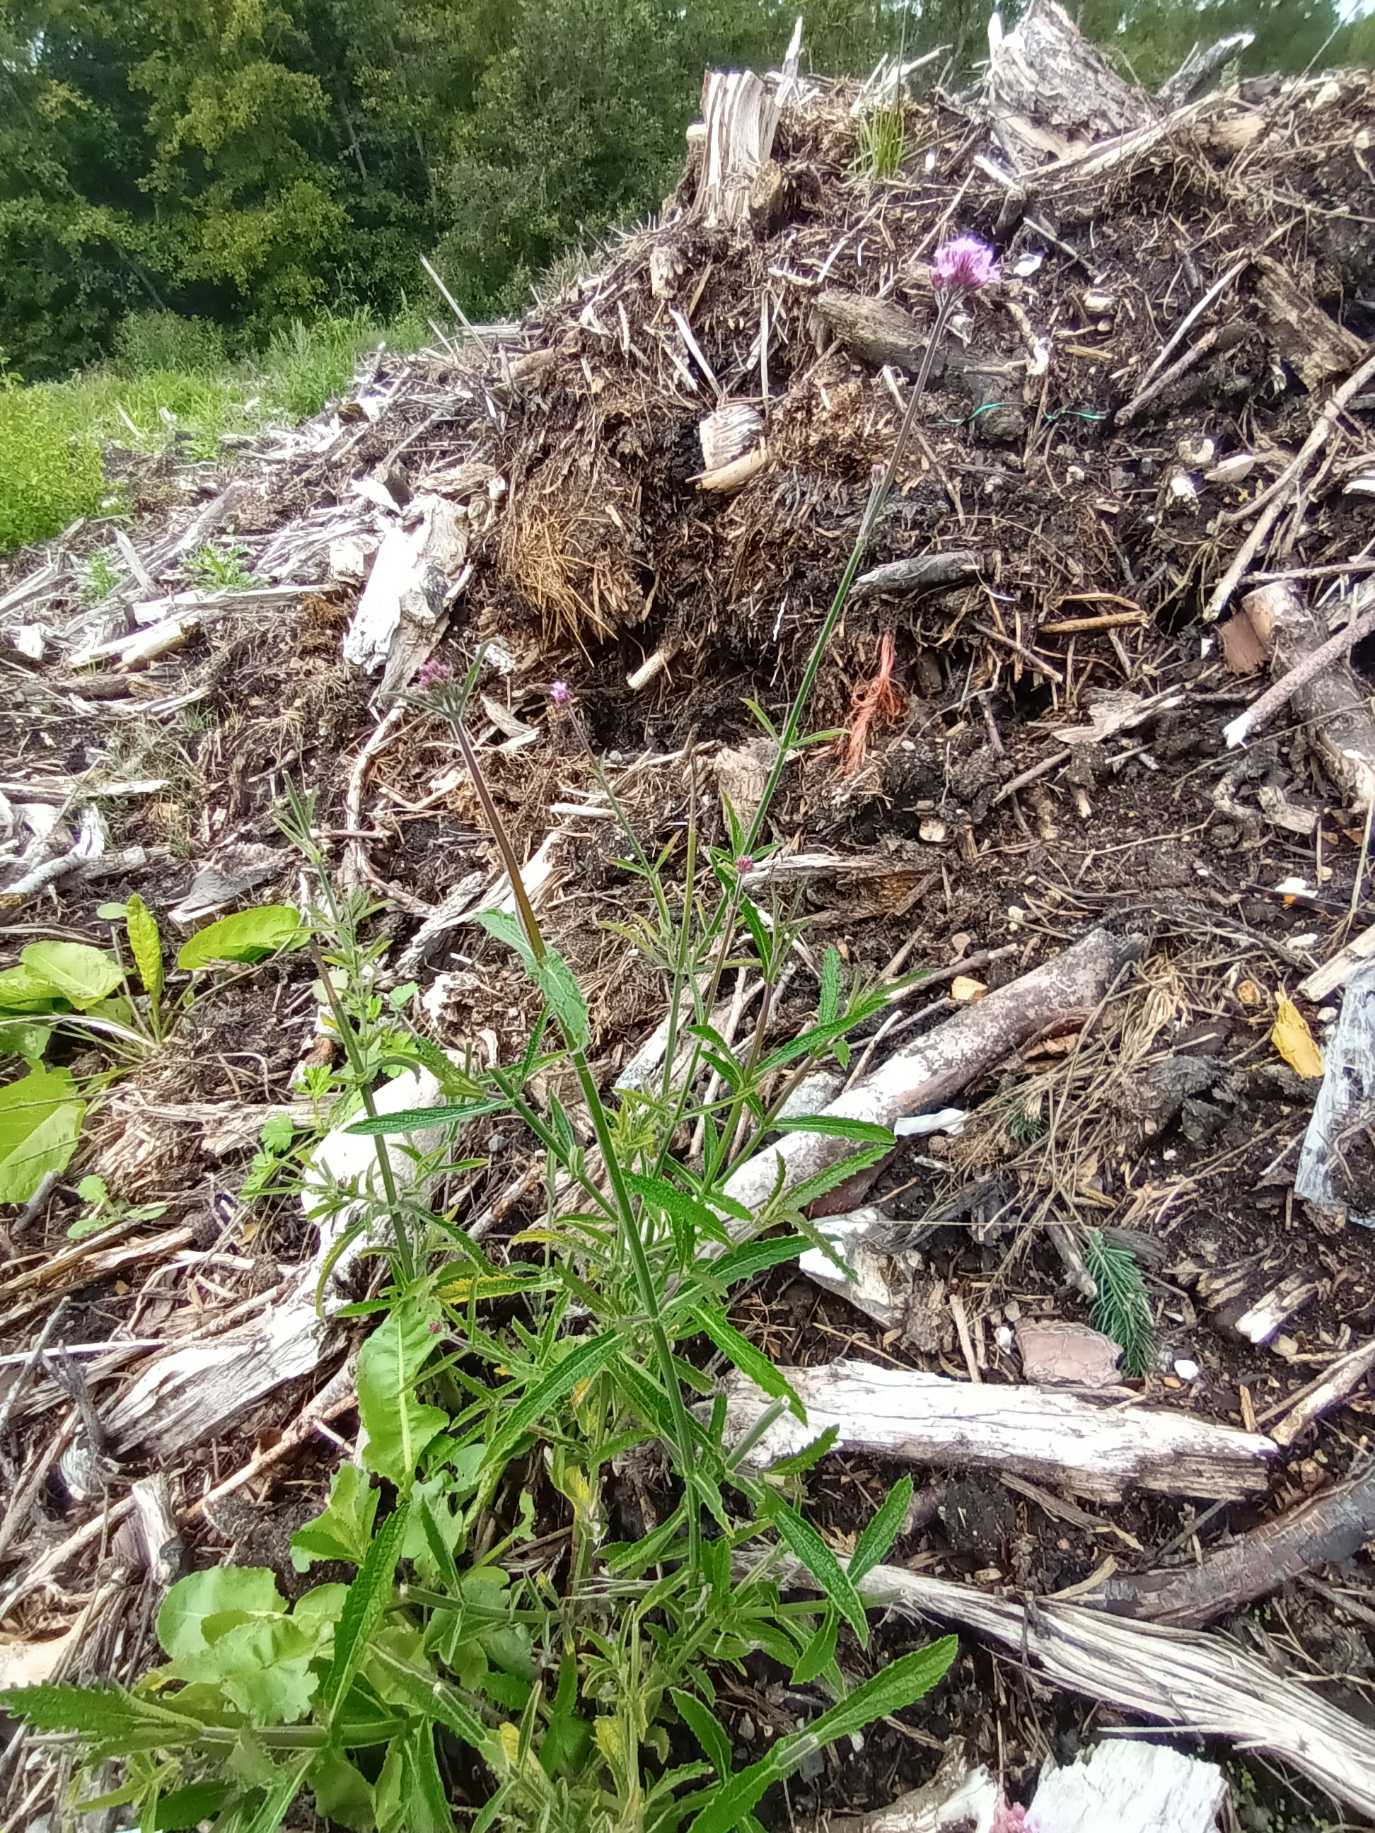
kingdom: Plantae
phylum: Tracheophyta
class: Magnoliopsida
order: Lamiales
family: Verbenaceae
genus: Verbena
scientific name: Verbena bonariensis
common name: Kæmpe-jernurt
